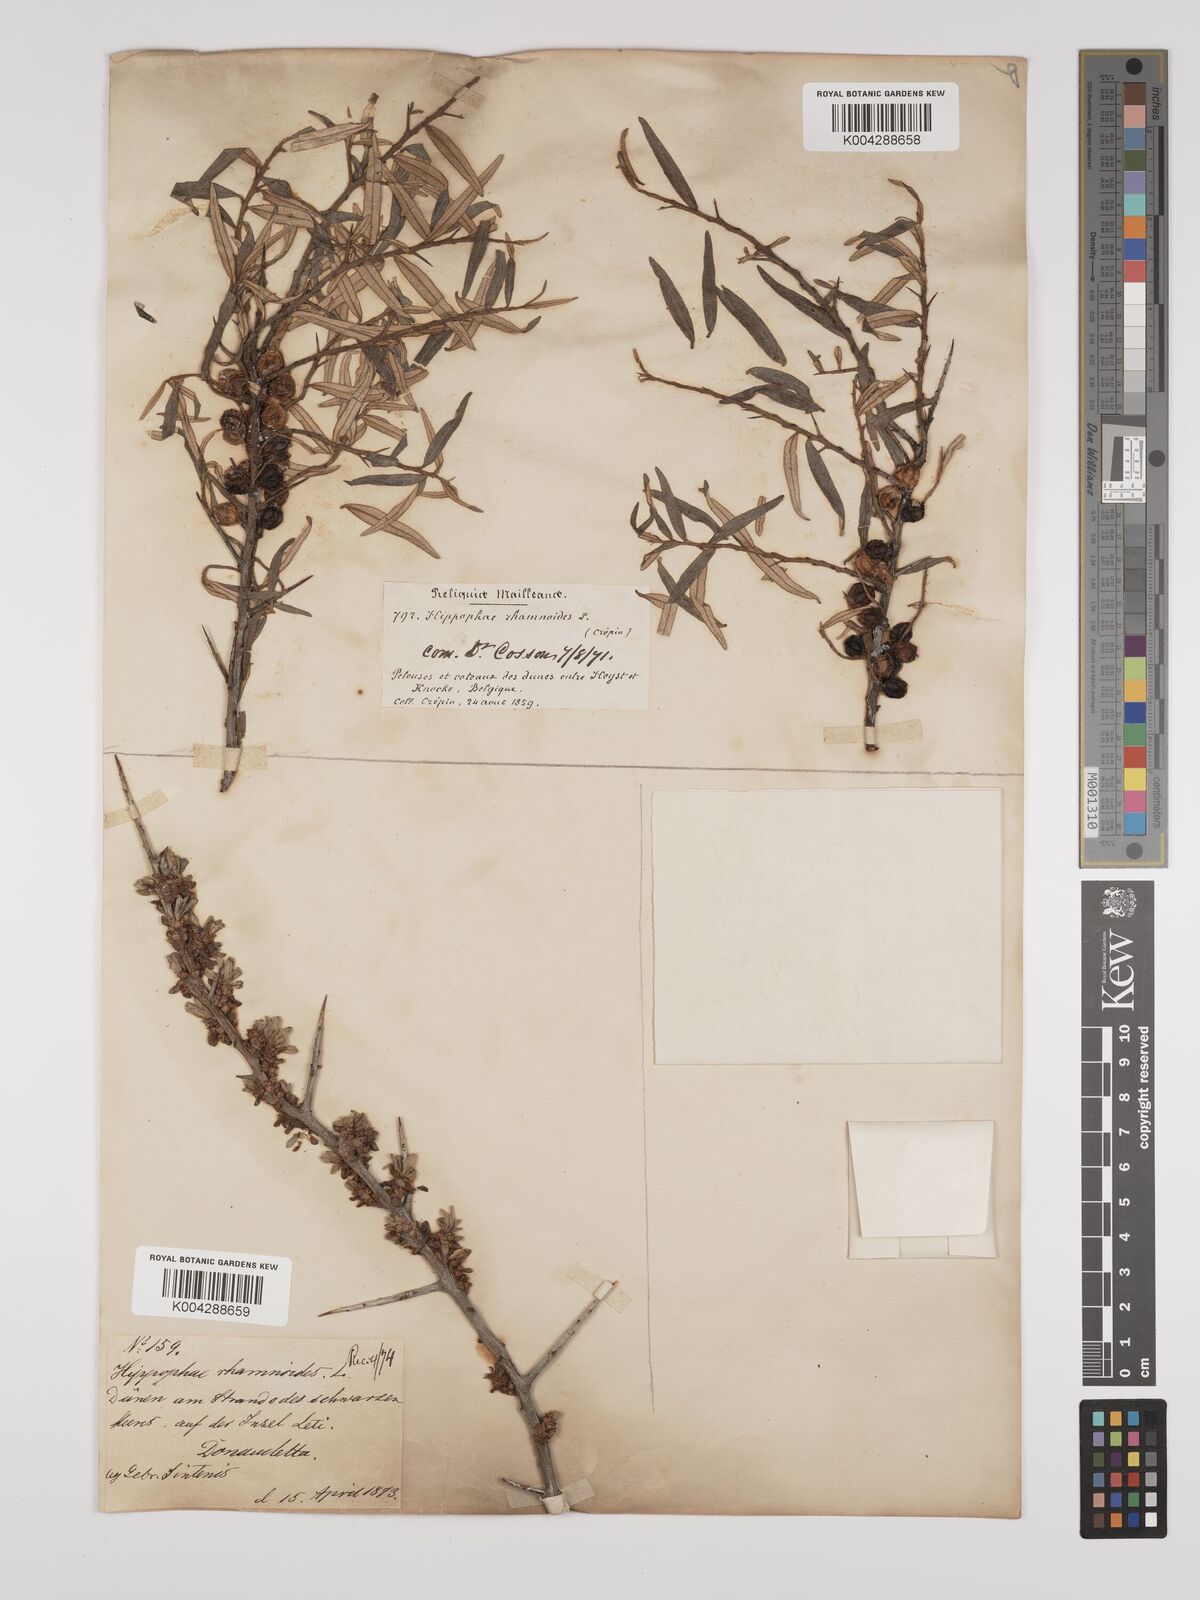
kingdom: Plantae
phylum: Tracheophyta
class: Magnoliopsida
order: Rosales
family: Elaeagnaceae
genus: Hippophae
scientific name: Hippophae rhamnoides
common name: Sea-buckthorn
